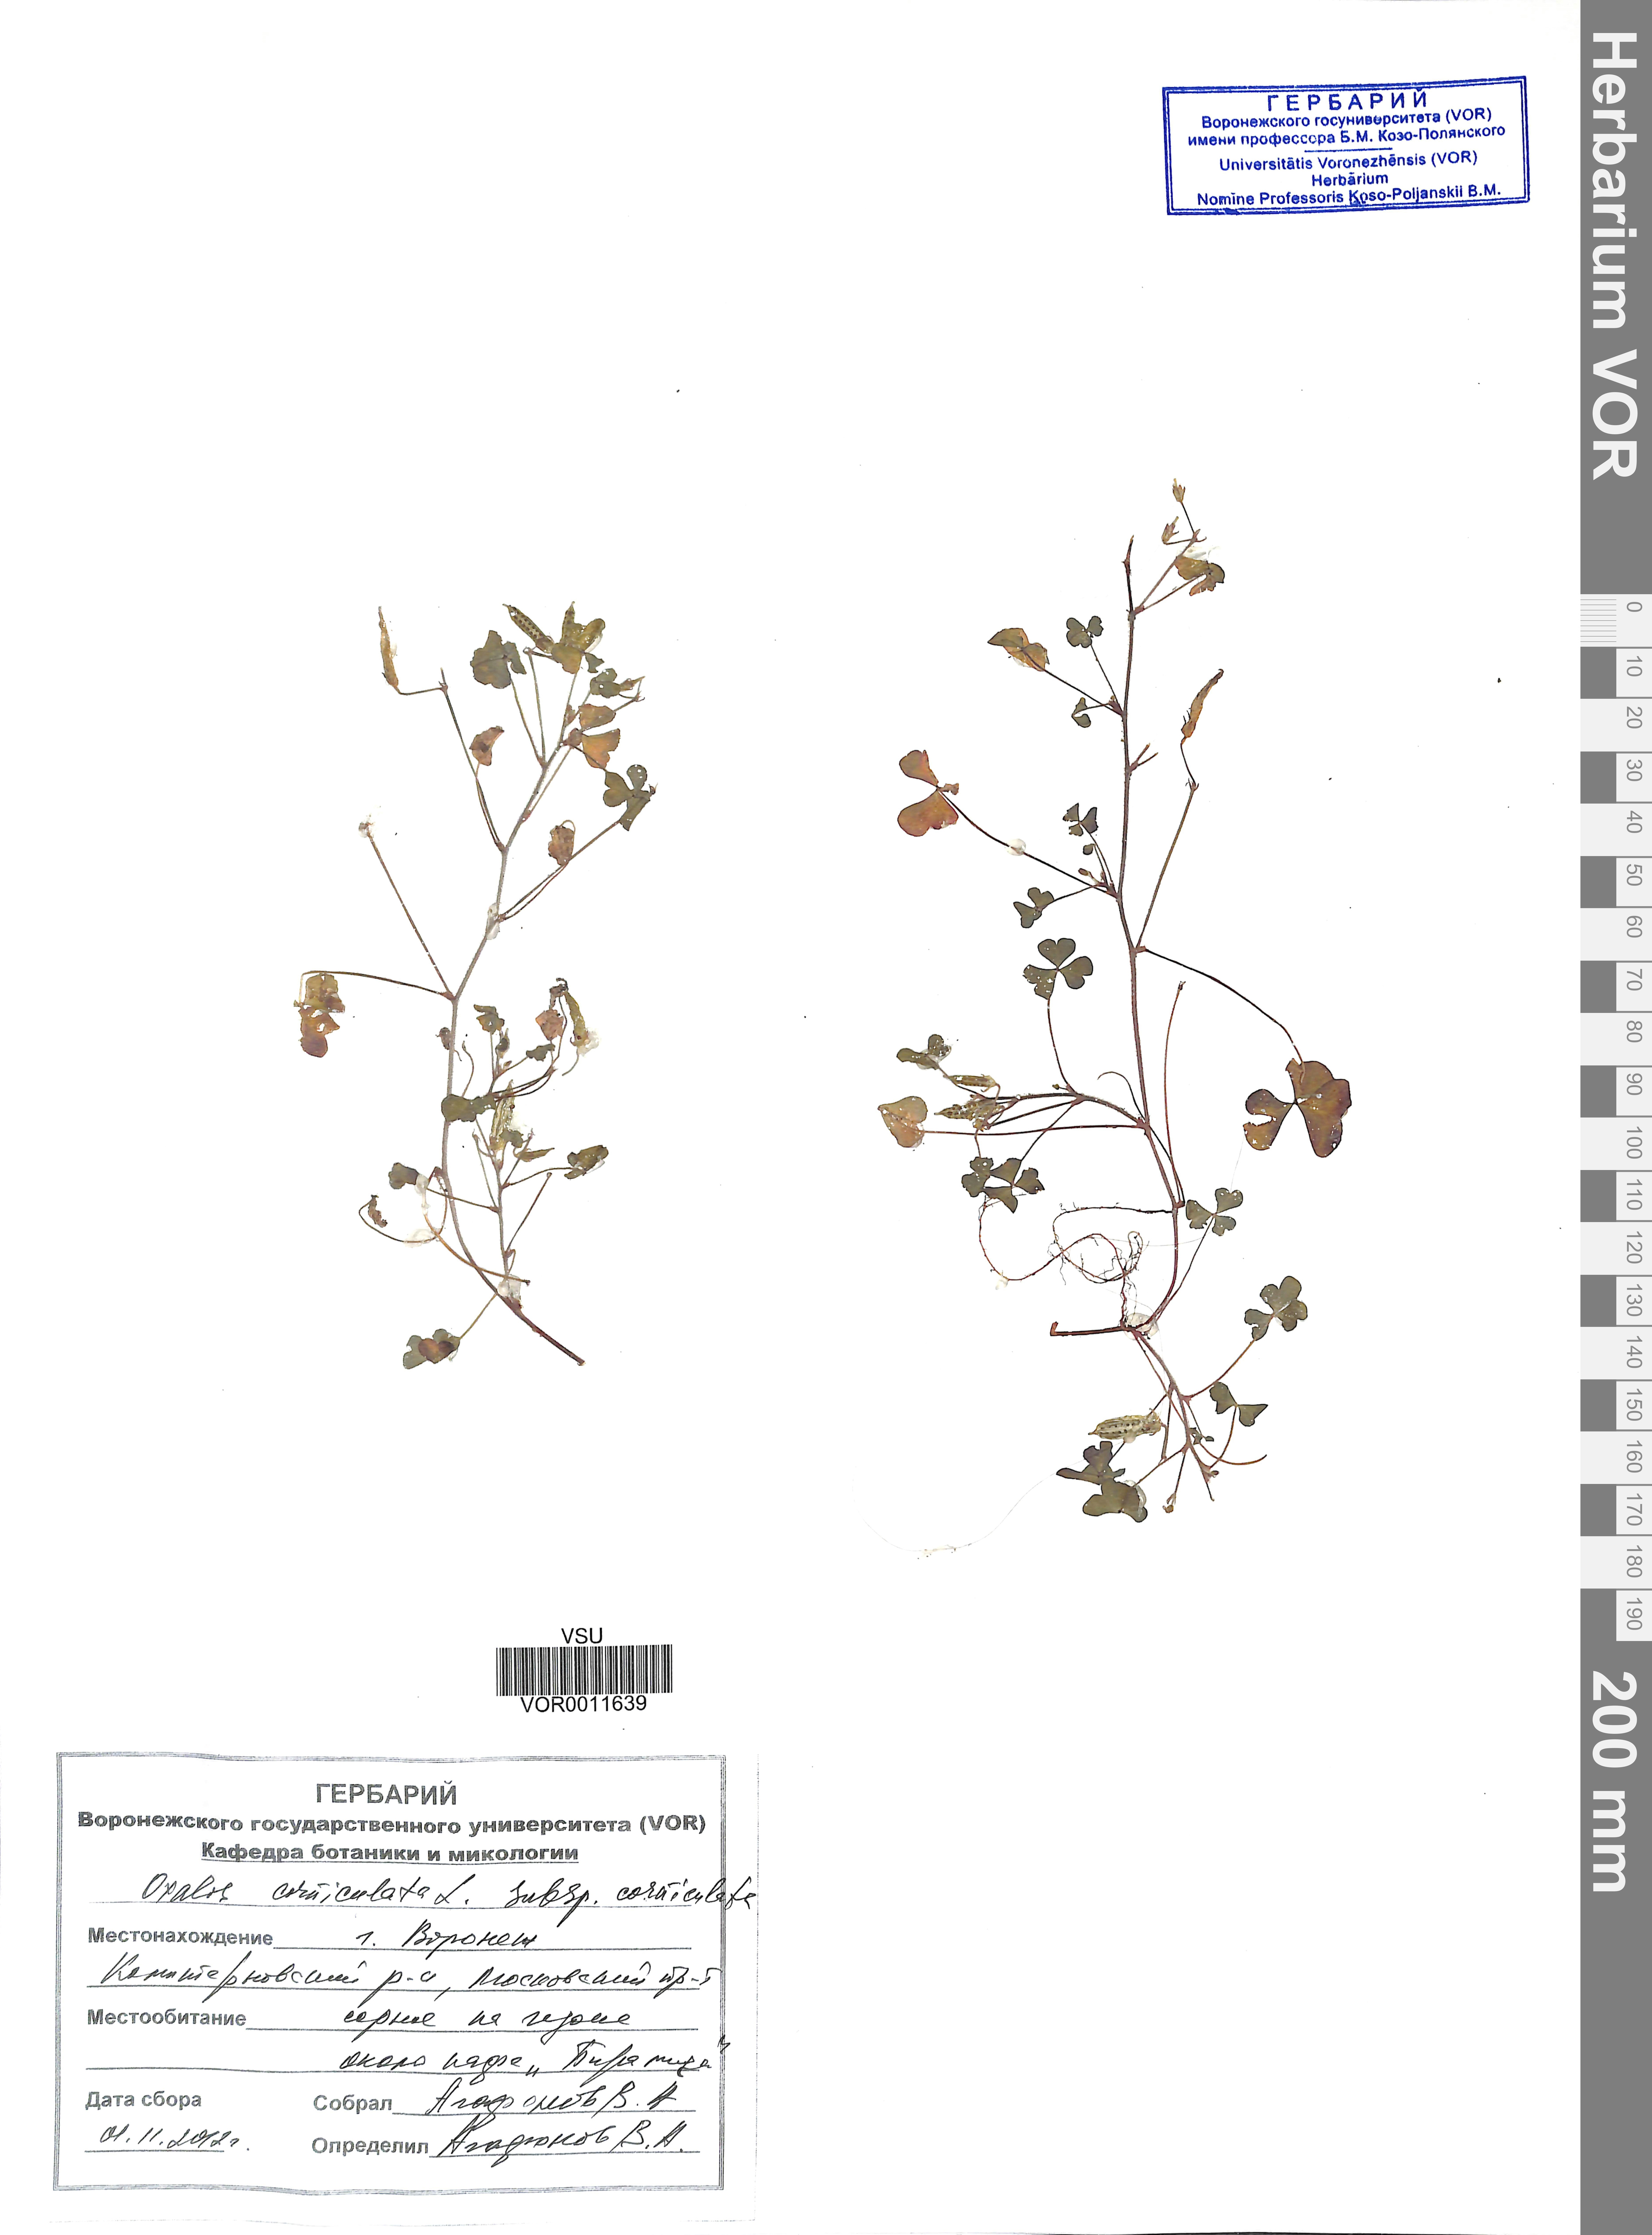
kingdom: Plantae
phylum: Tracheophyta
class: Magnoliopsida
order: Oxalidales
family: Oxalidaceae
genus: Oxalis
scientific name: Oxalis corniculata
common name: Procumbent yellow-sorrel
